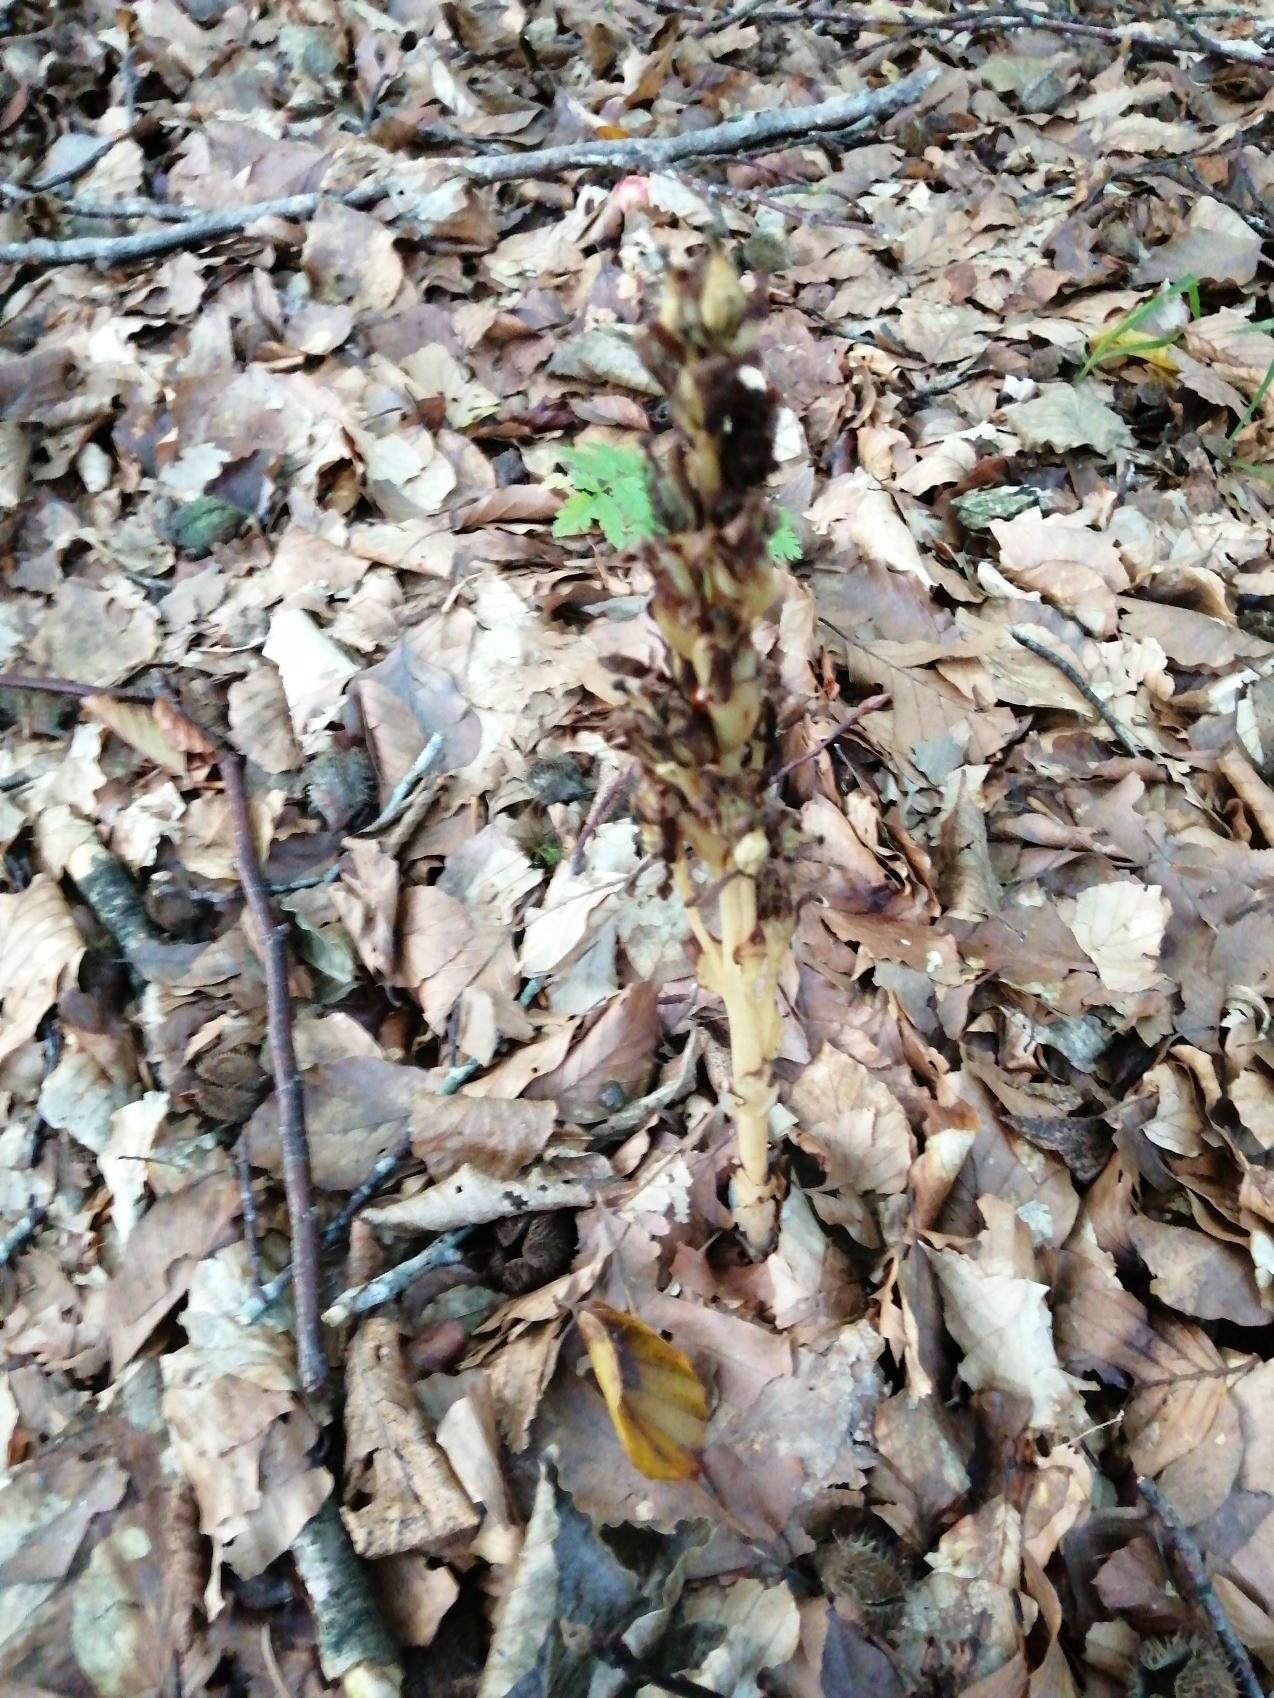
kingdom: Plantae
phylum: Tracheophyta
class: Magnoliopsida
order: Ericales
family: Ericaceae
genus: Hypopitys
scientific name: Hypopitys monotropa
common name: Snylterod
